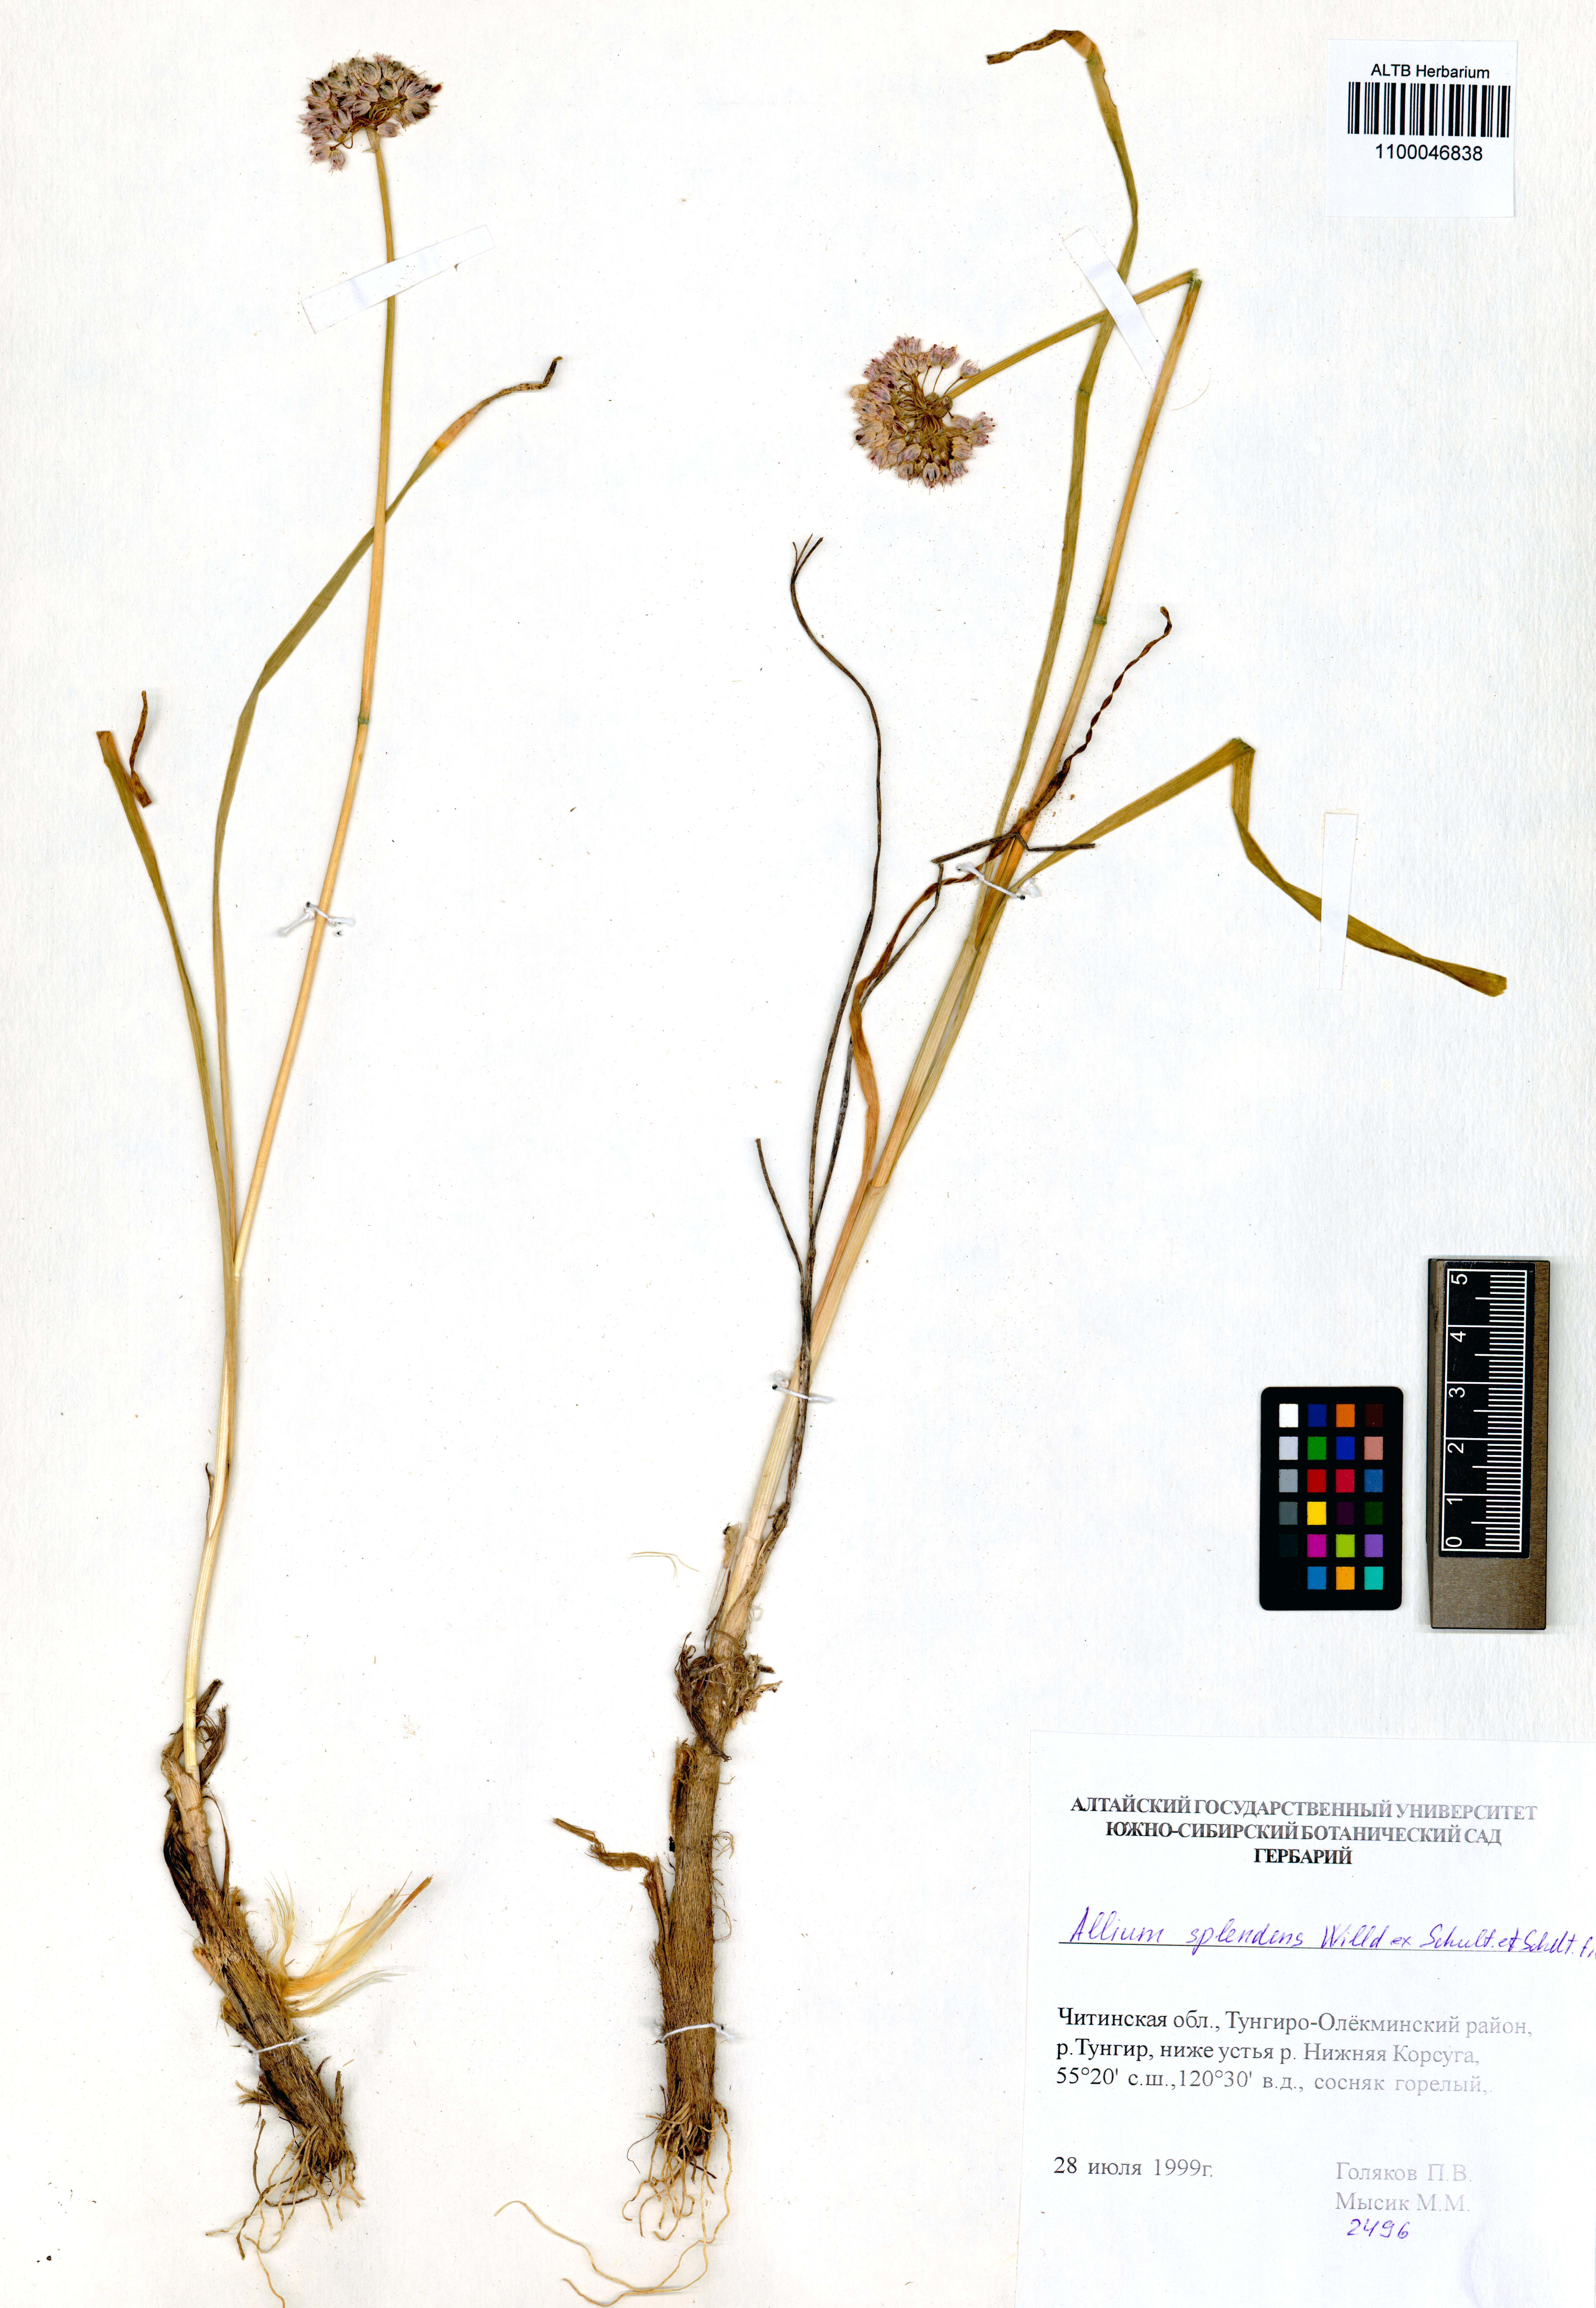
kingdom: Plantae
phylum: Tracheophyta
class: Liliopsida
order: Asparagales
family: Amaryllidaceae
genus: Allium
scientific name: Allium splendens
